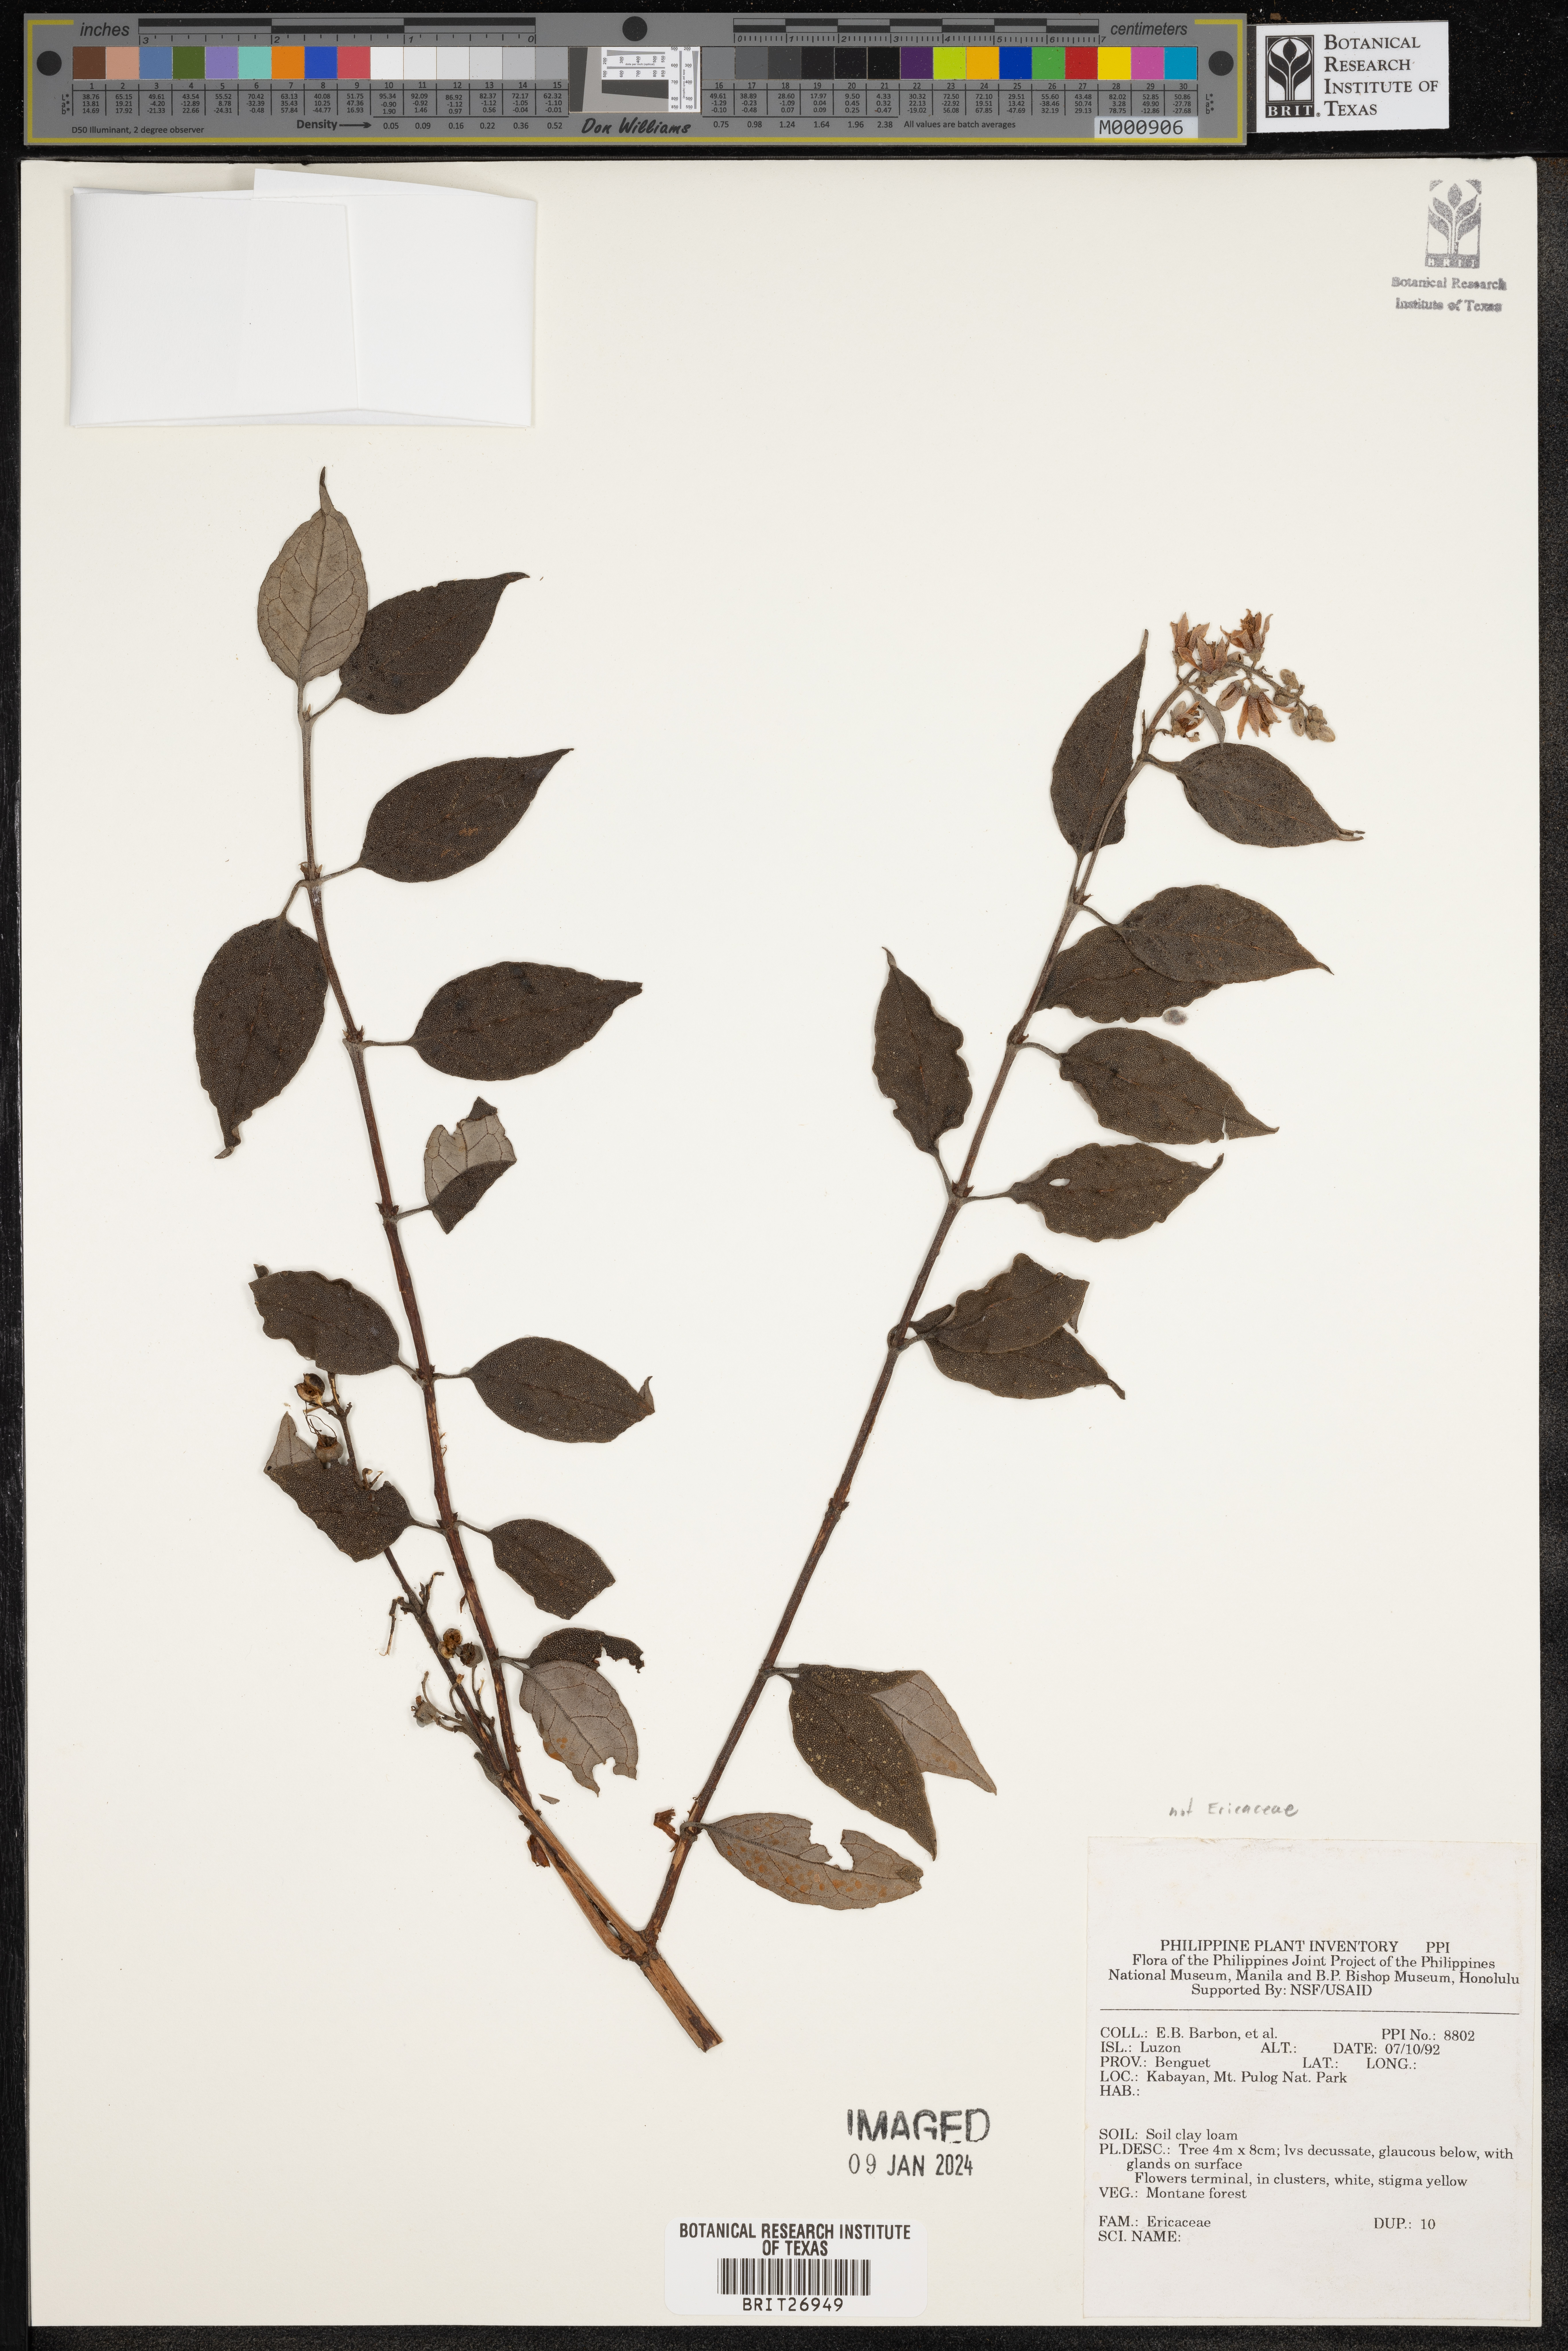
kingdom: Plantae
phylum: Tracheophyta
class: Magnoliopsida
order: Ericales
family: Ericaceae
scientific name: Ericaceae
